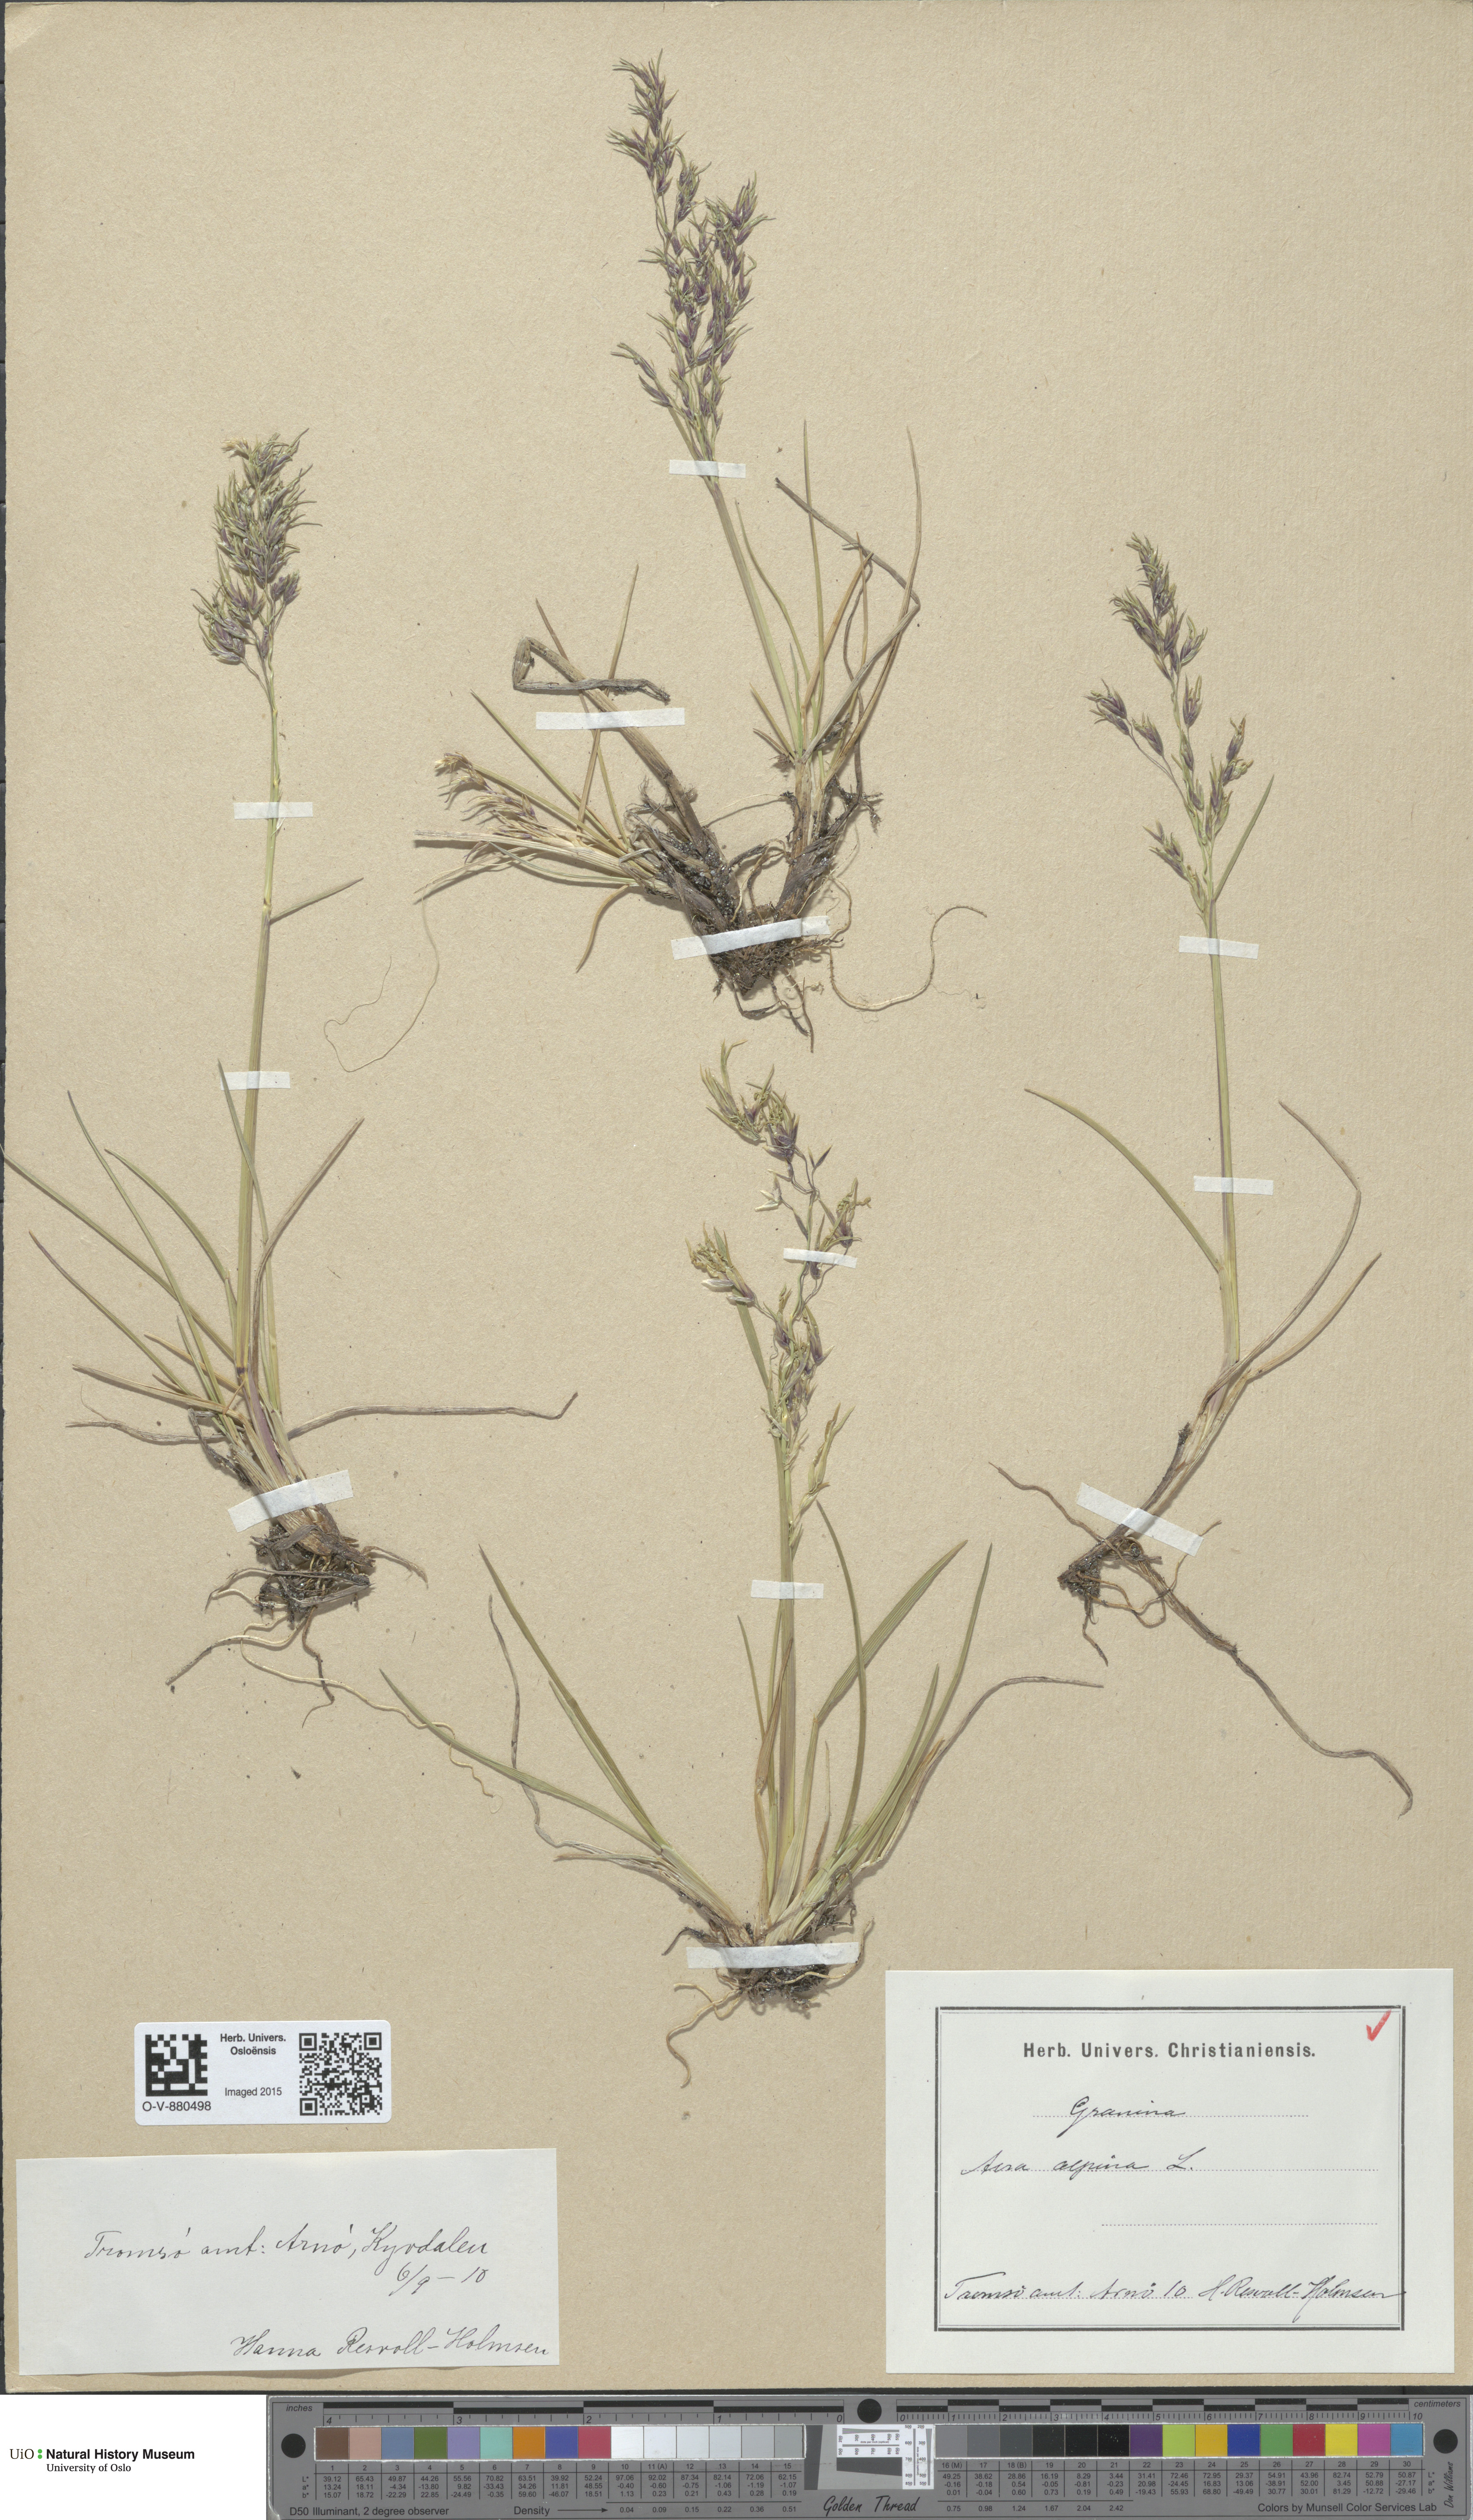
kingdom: Plantae
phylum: Tracheophyta
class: Liliopsida
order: Poales
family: Poaceae
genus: Deschampsia
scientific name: Deschampsia cespitosa
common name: Tufted hair-grass
